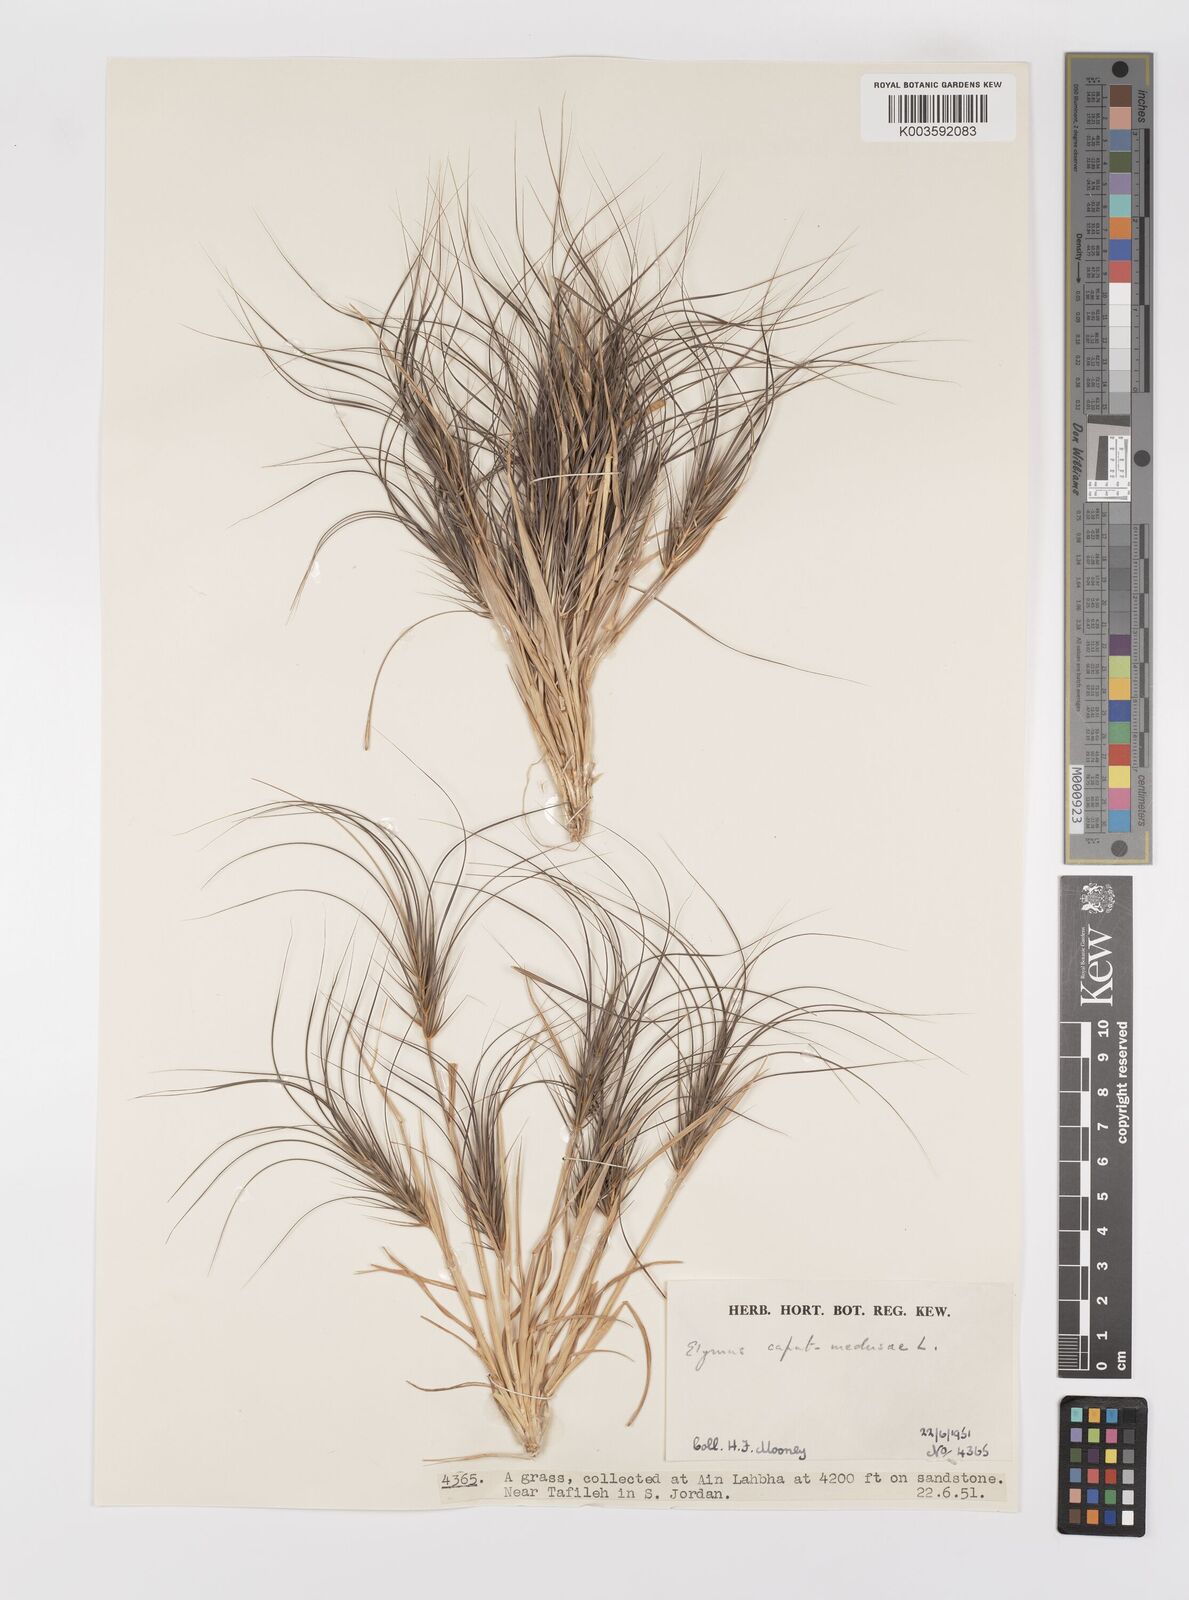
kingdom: Plantae
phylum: Tracheophyta
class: Liliopsida
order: Poales
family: Poaceae
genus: Taeniatherum
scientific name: Taeniatherum caput-medusae
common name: Medusahead
